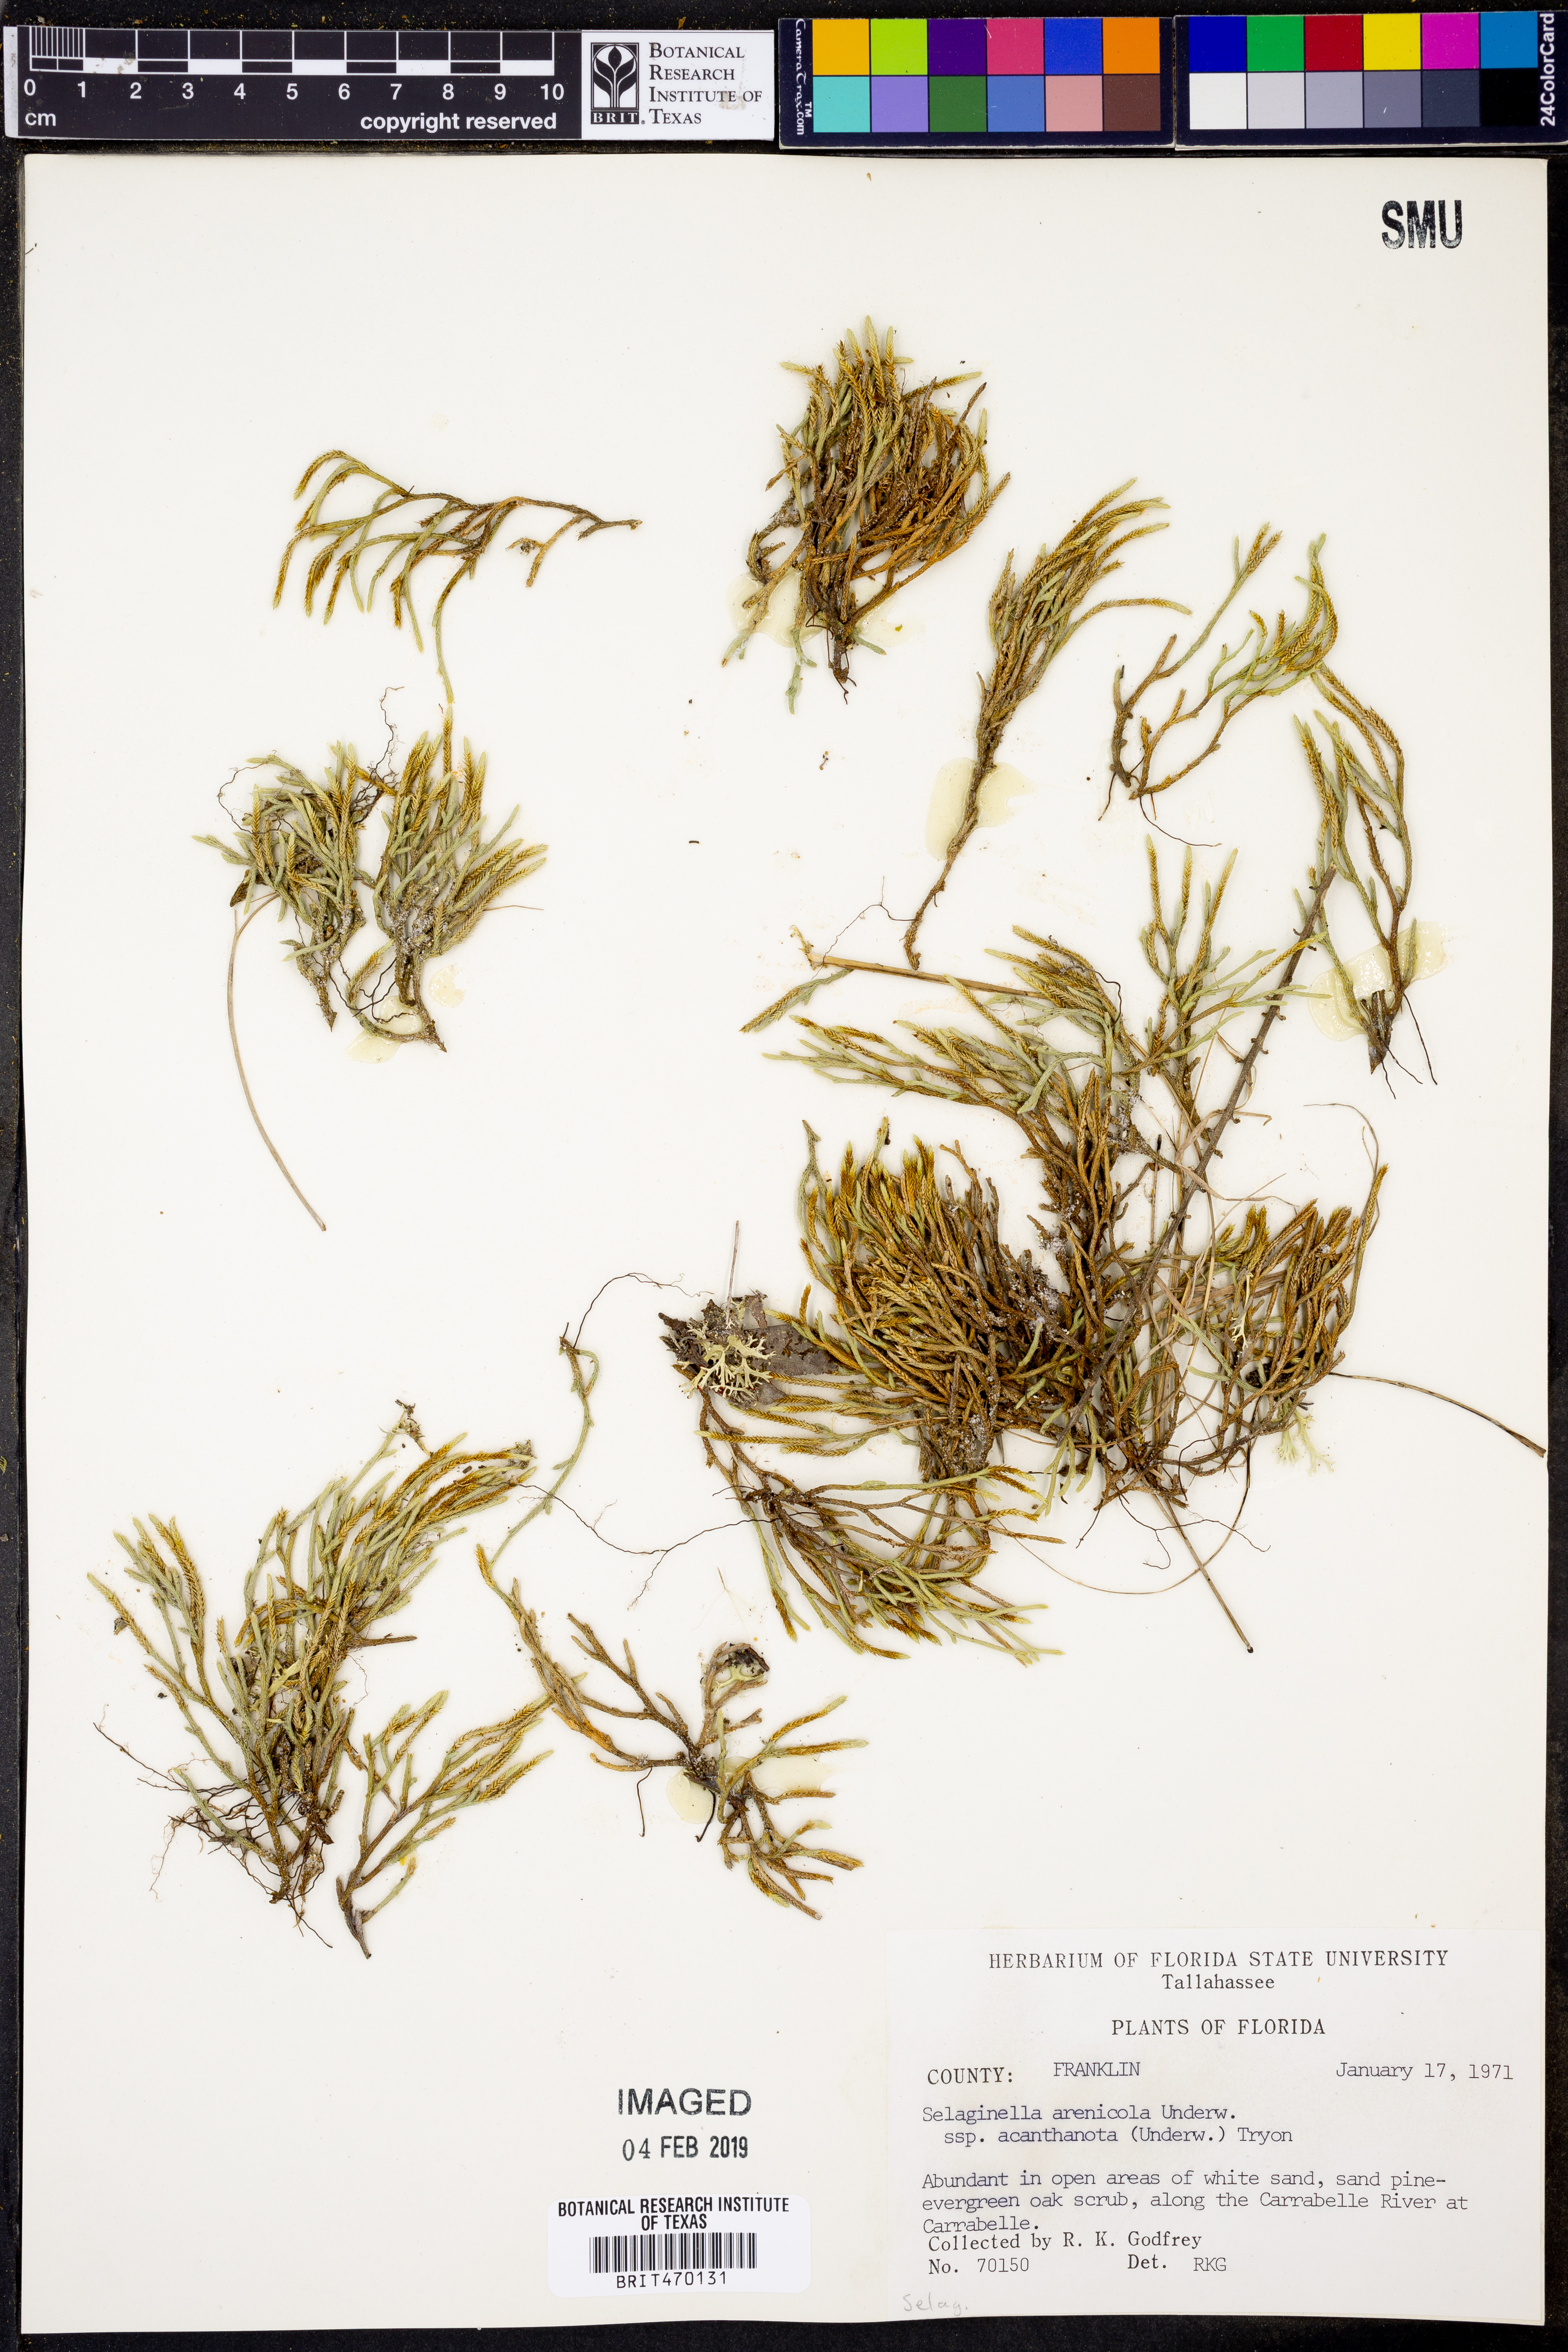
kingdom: Plantae
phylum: Tracheophyta
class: Lycopodiopsida
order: Selaginellales
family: Selaginellaceae
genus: Selaginella
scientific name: Selaginella acanthonota
